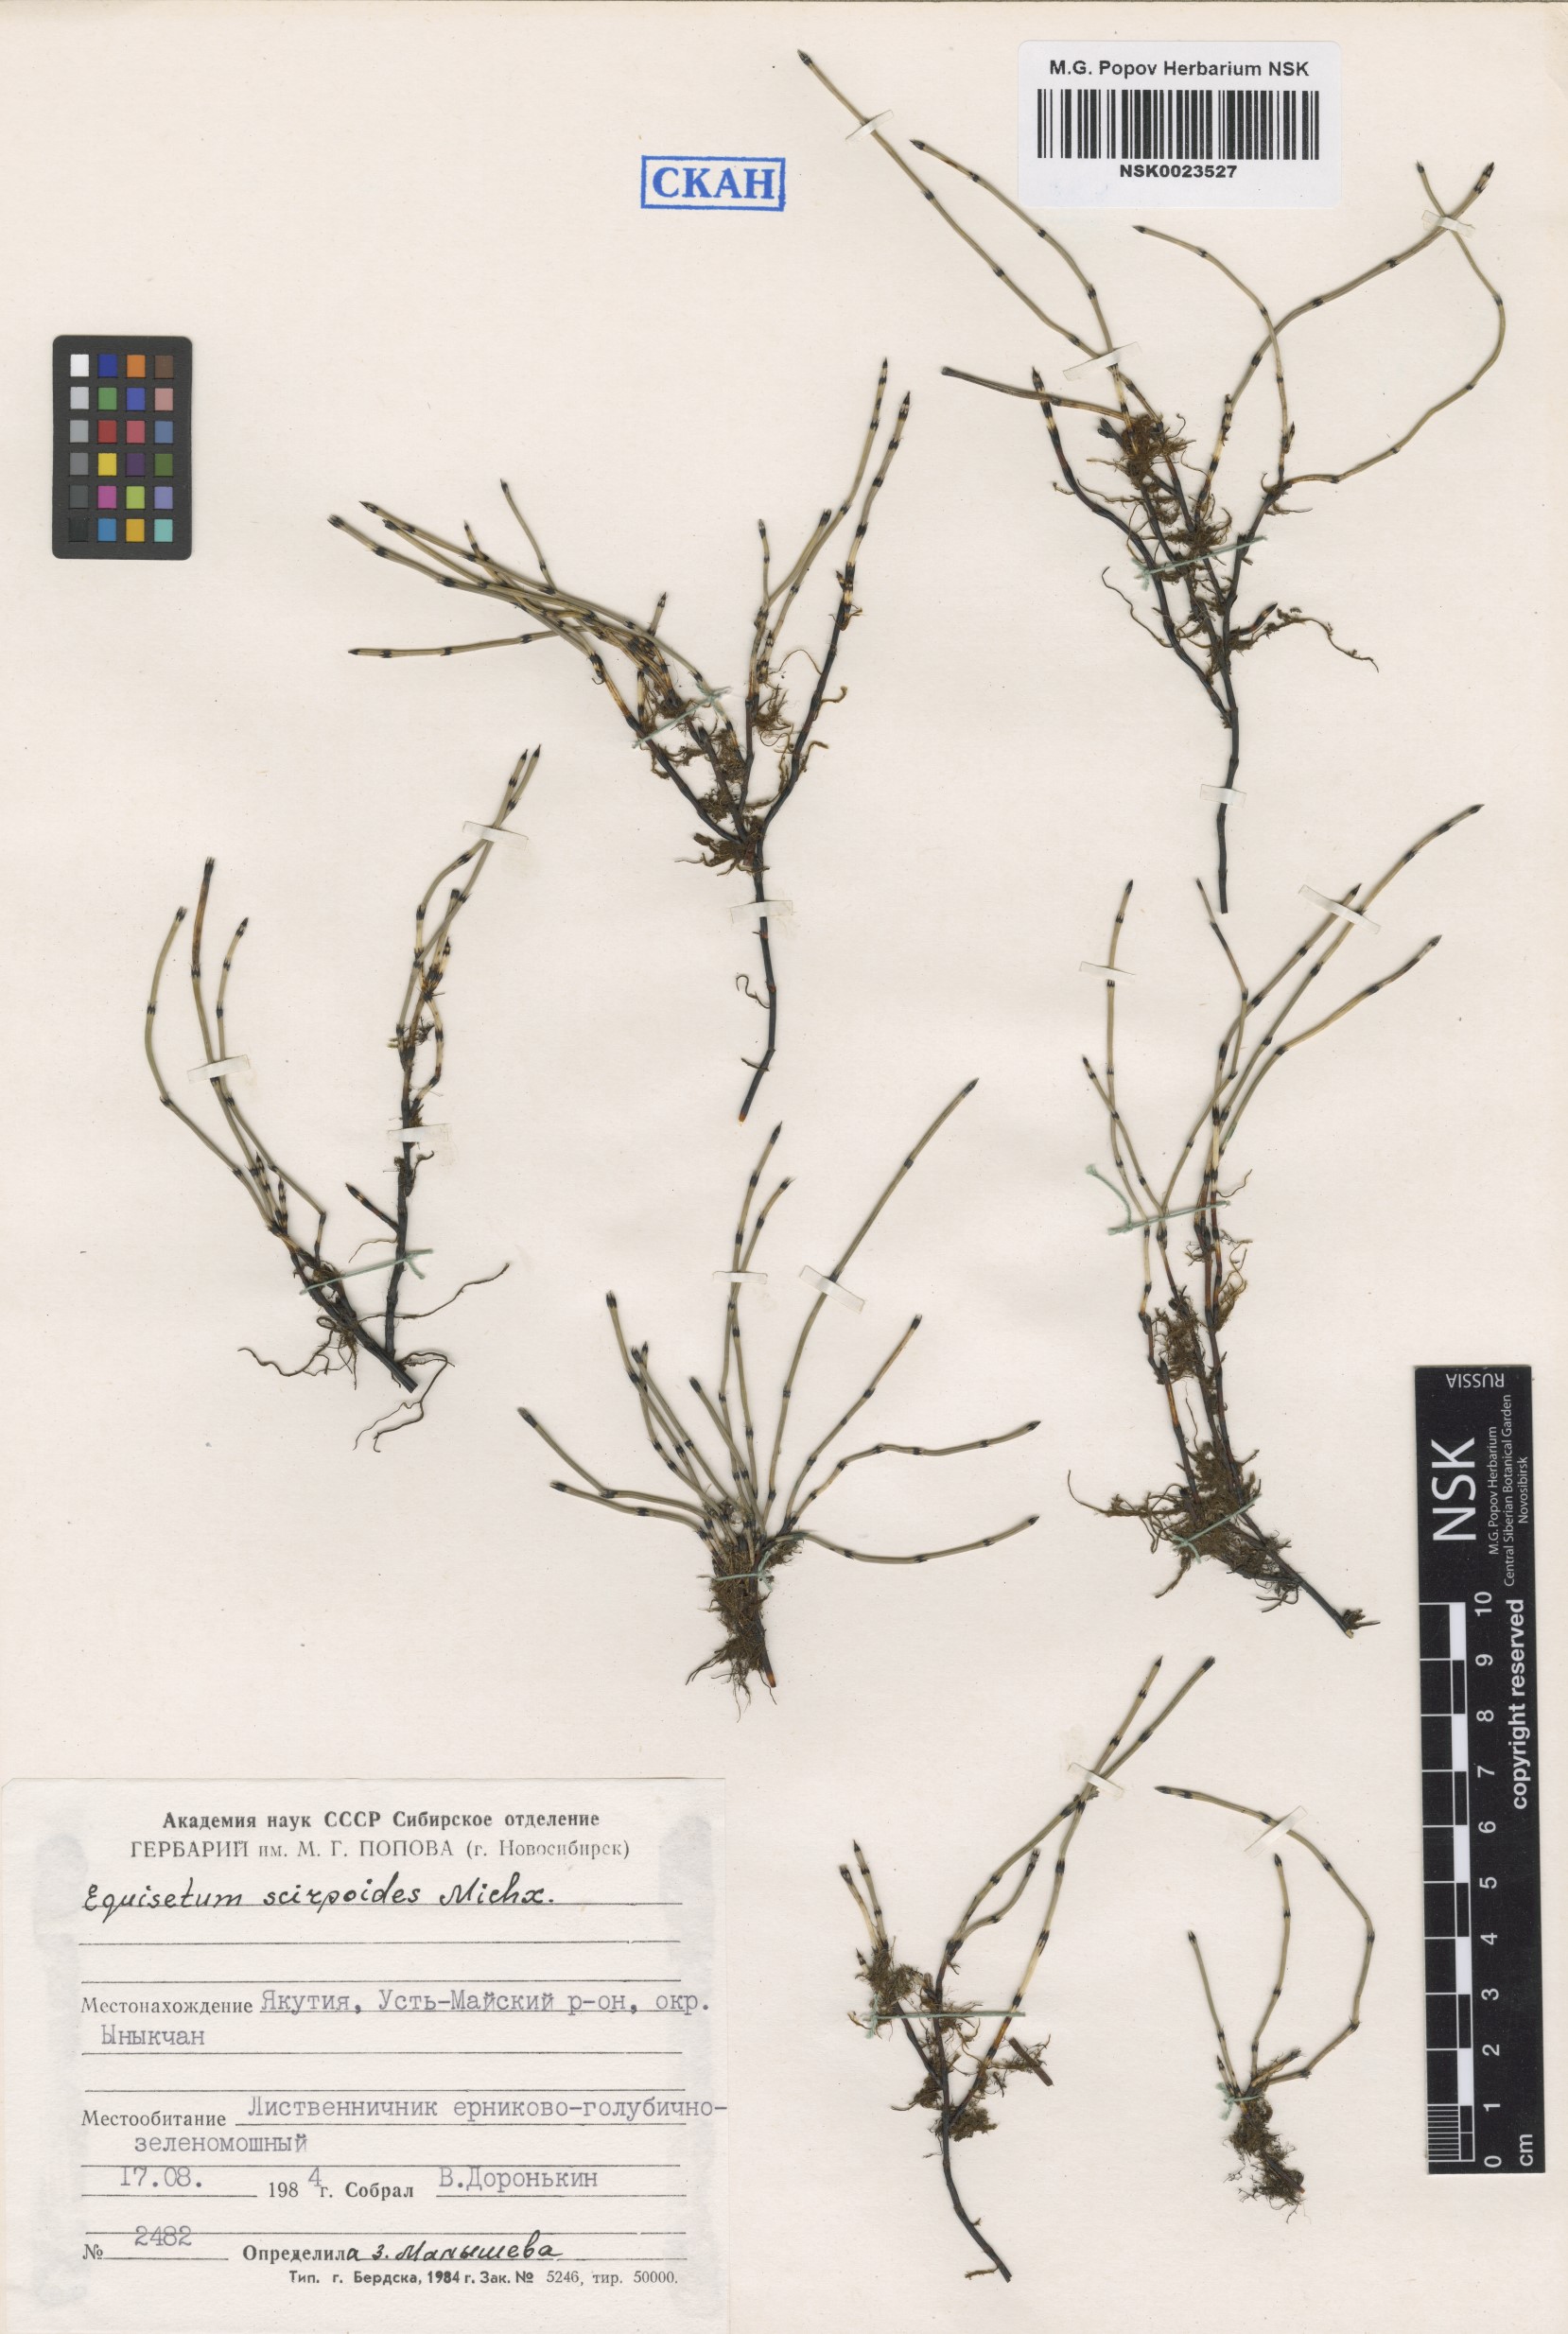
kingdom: Plantae
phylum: Tracheophyta
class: Polypodiopsida
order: Equisetales
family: Equisetaceae
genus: Equisetum
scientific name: Equisetum scirpoides
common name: Delicate horsetail
